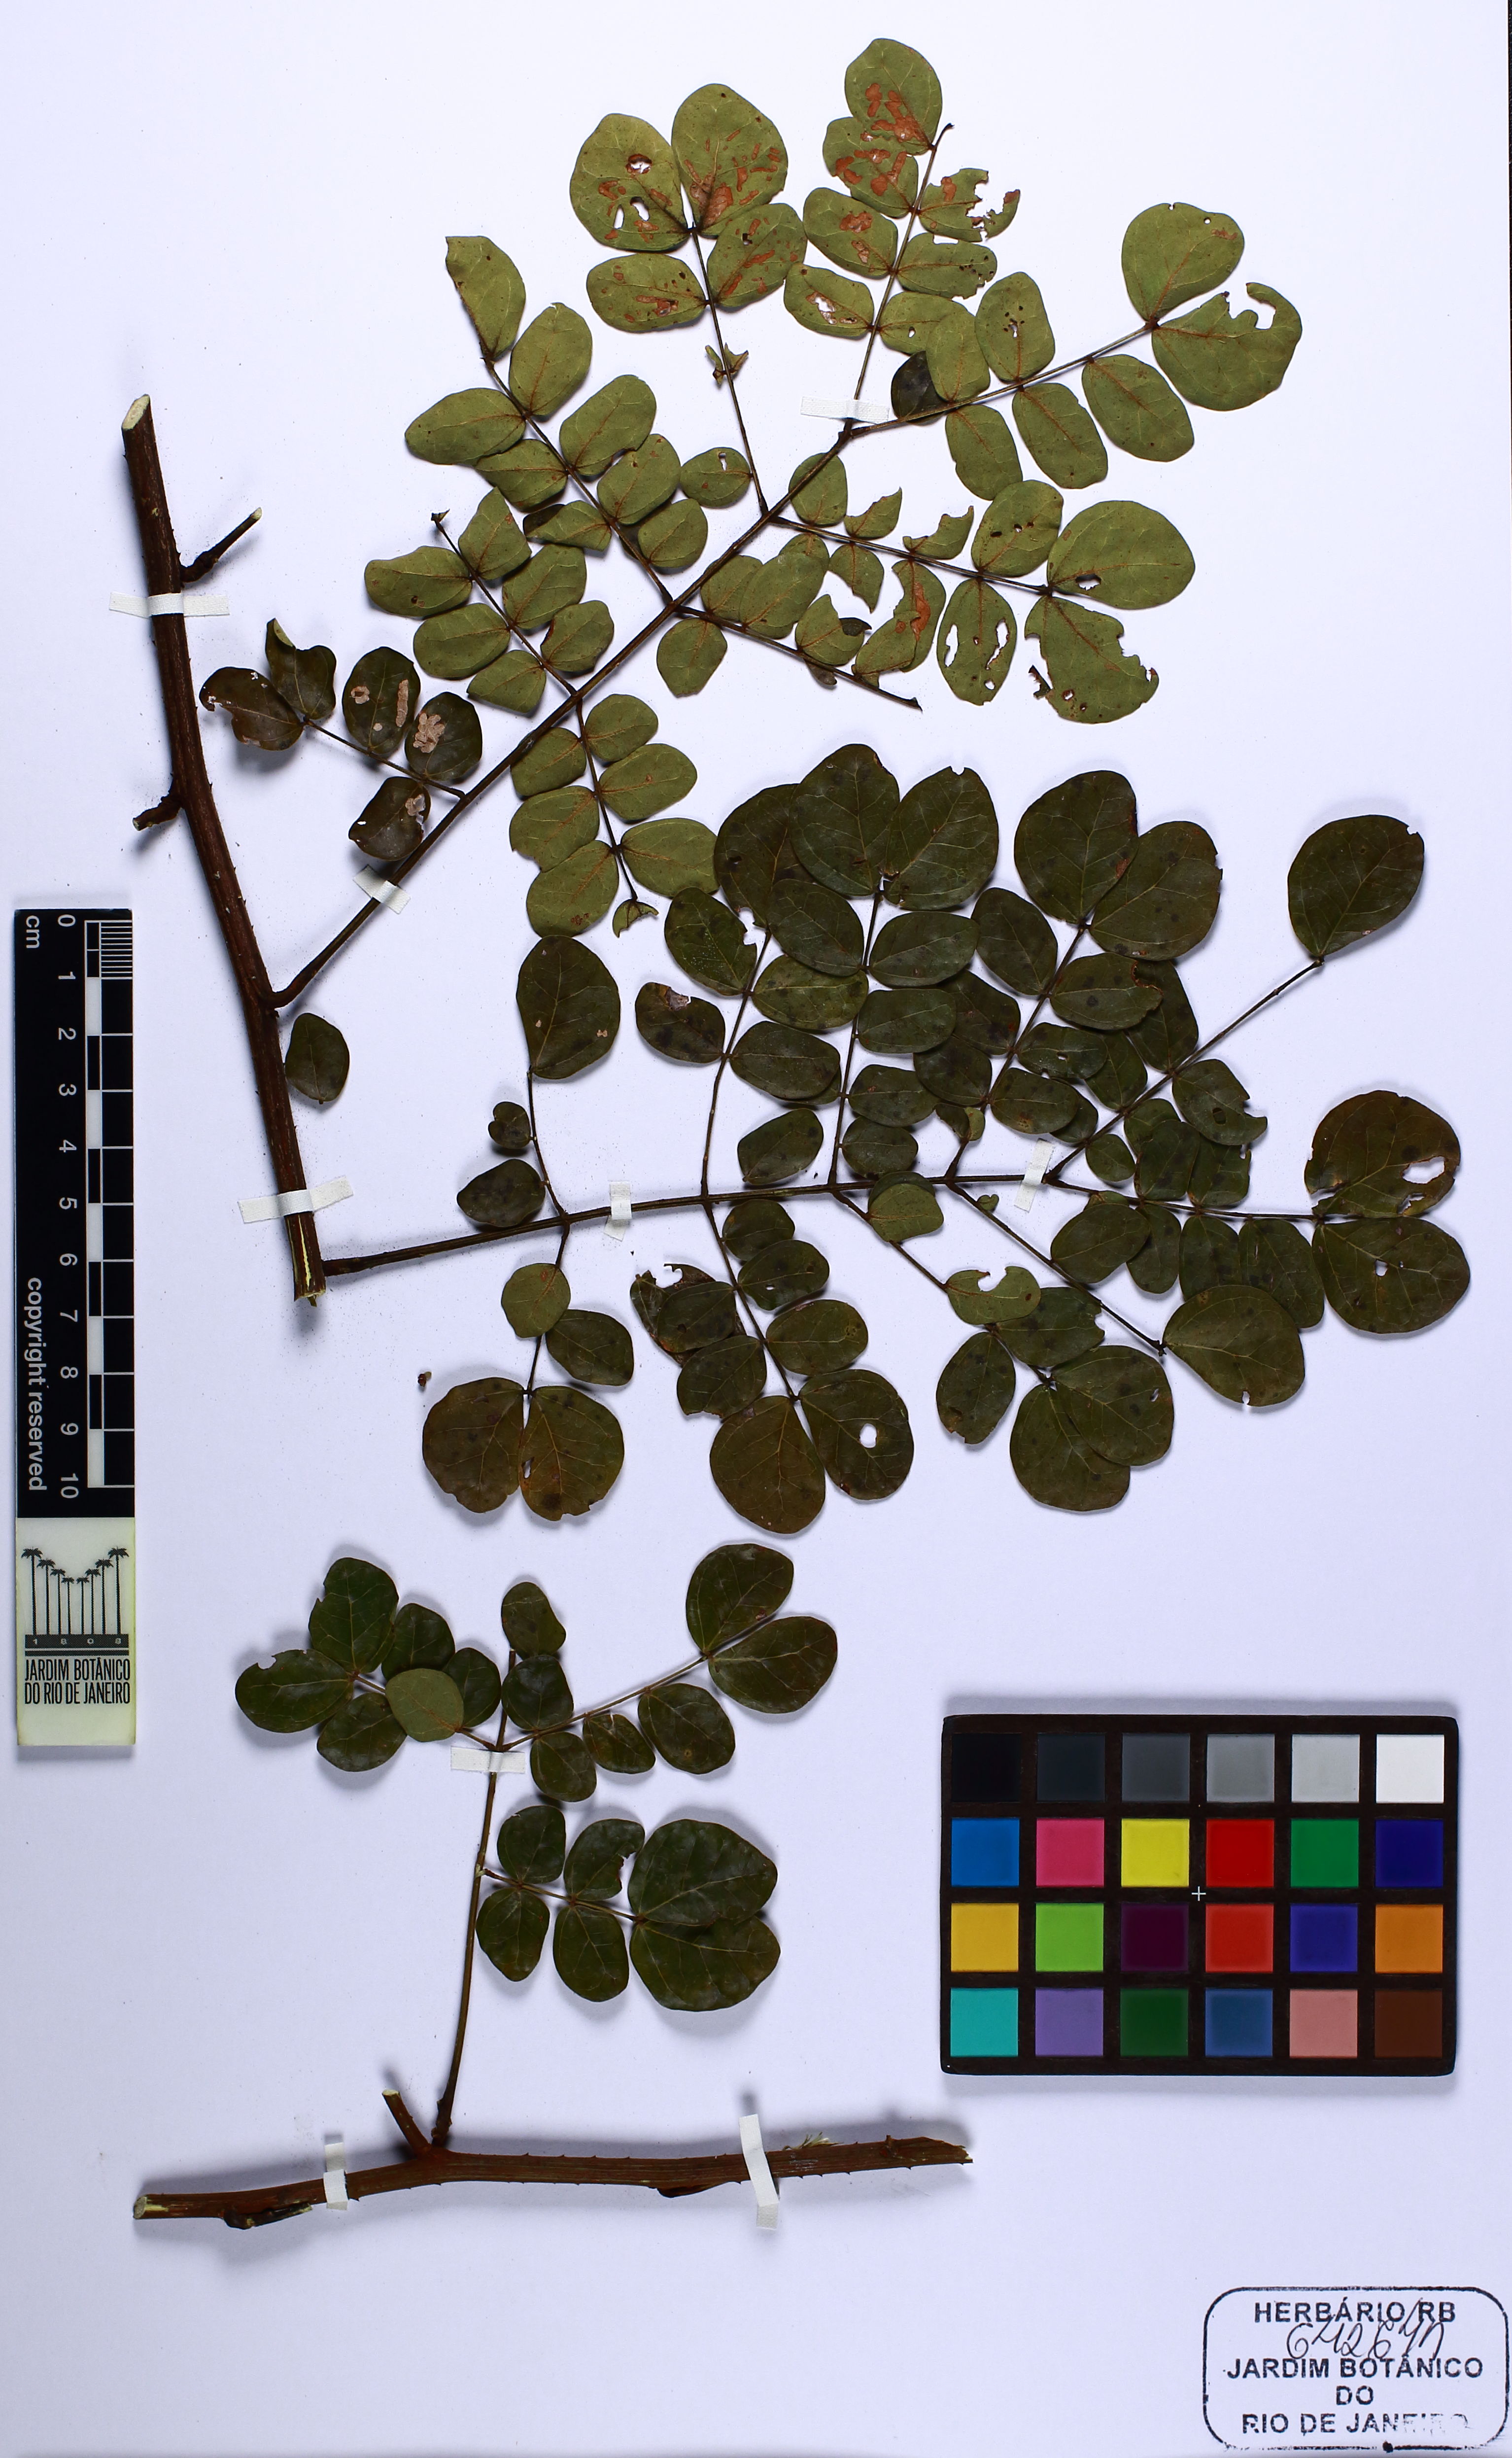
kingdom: Plantae
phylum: Tracheophyta
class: Magnoliopsida
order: Fabales
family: Fabaceae
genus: Mimosa
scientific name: Mimosa annularis
